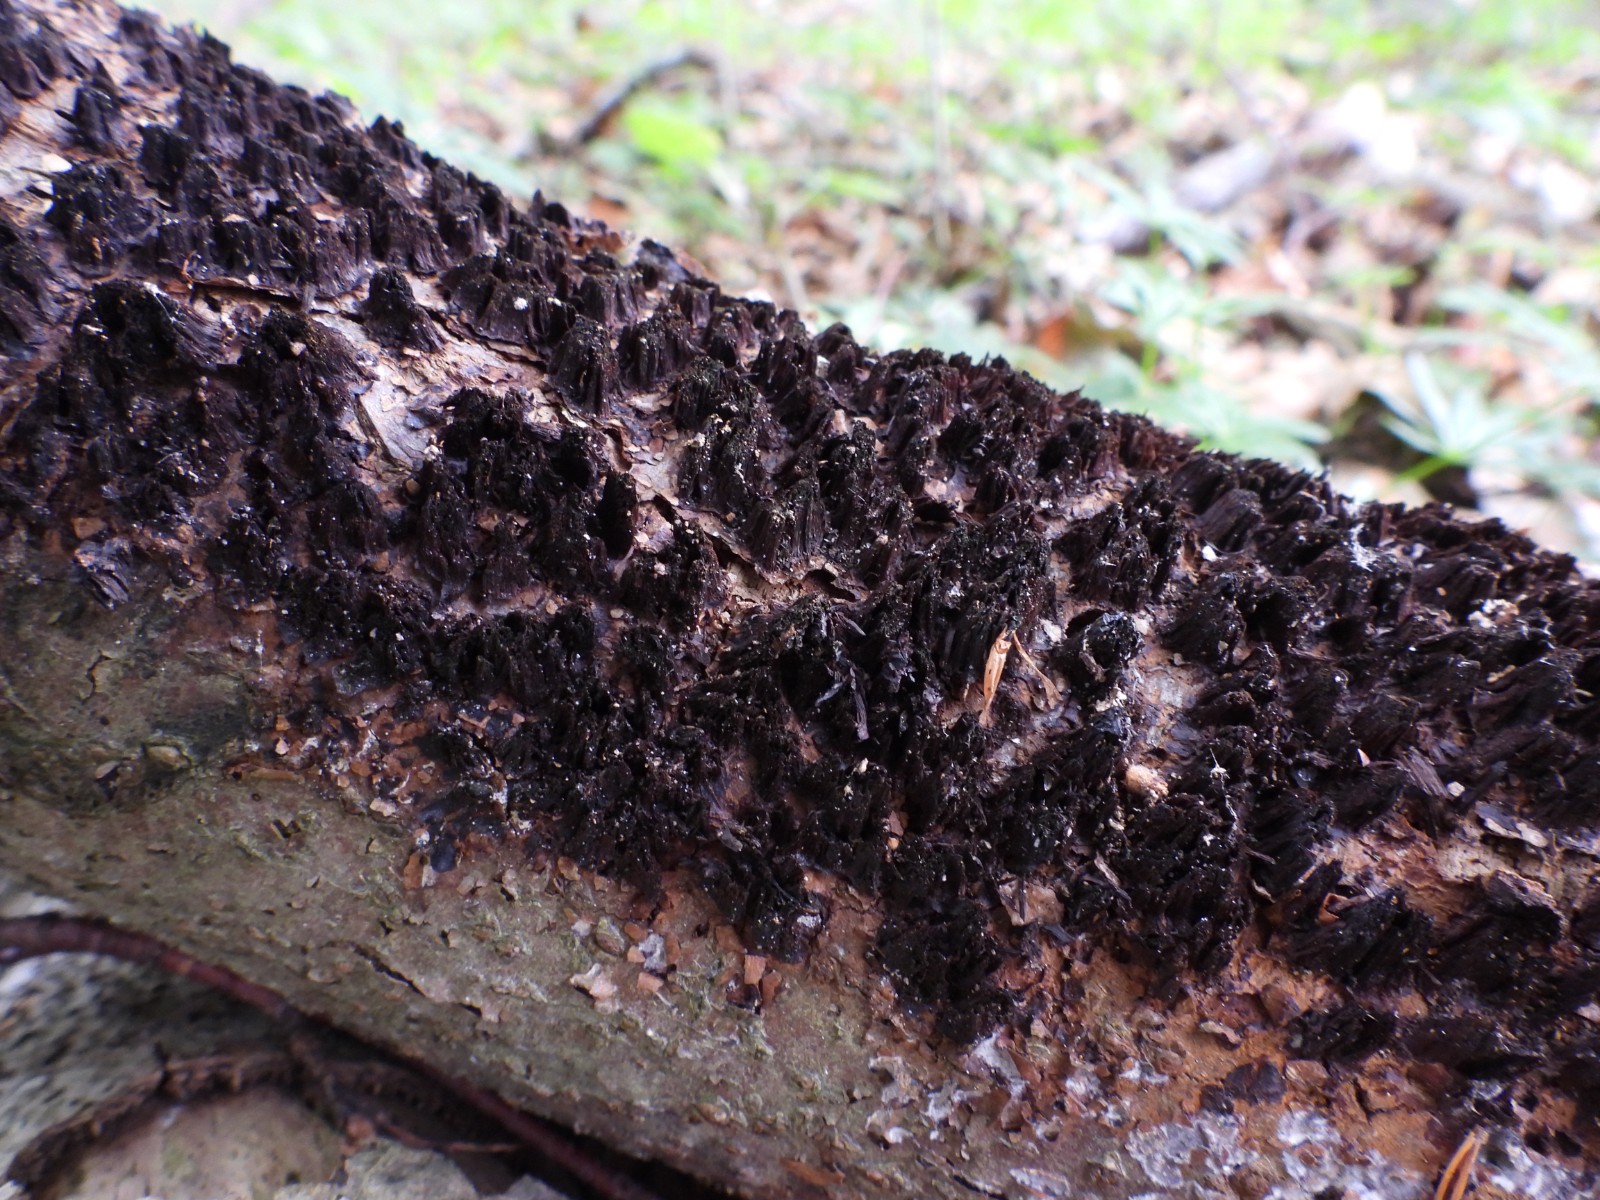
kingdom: Fungi
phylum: Basidiomycota
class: Agaricomycetes
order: Polyporales
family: Steccherinaceae
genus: Antrodiella
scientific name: Antrodiella serpula
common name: gulrandet elastikporesvamp
